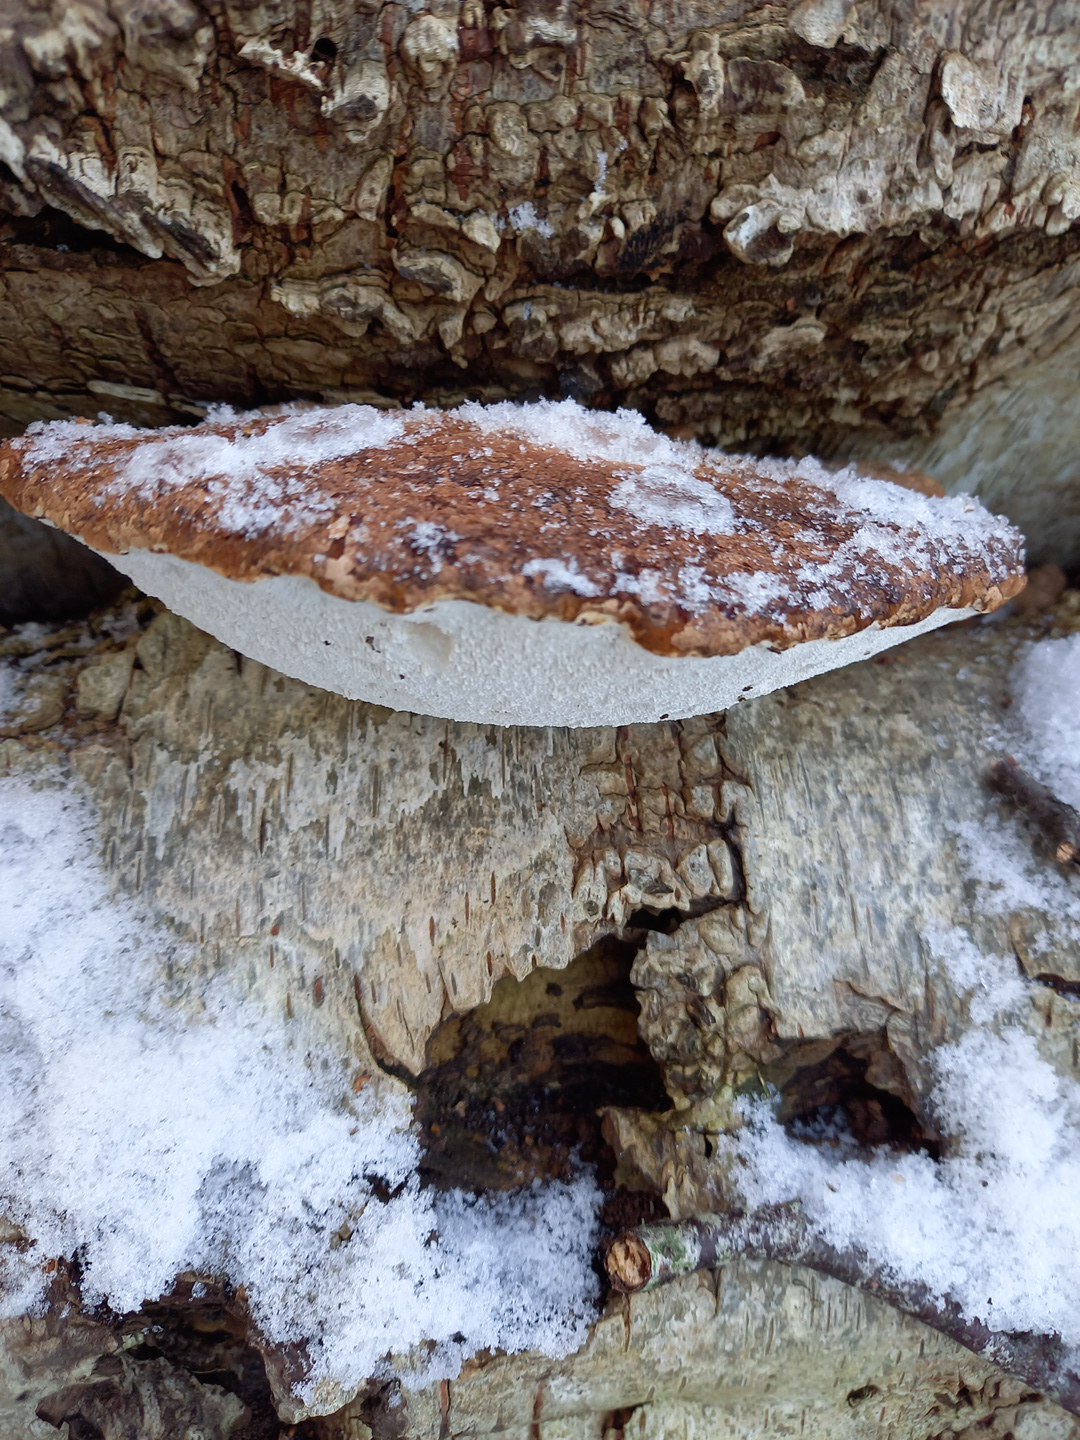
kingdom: Fungi
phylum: Basidiomycota
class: Agaricomycetes
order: Polyporales
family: Fomitopsidaceae
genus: Fomitopsis
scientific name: Fomitopsis betulina
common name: birkeporesvamp
